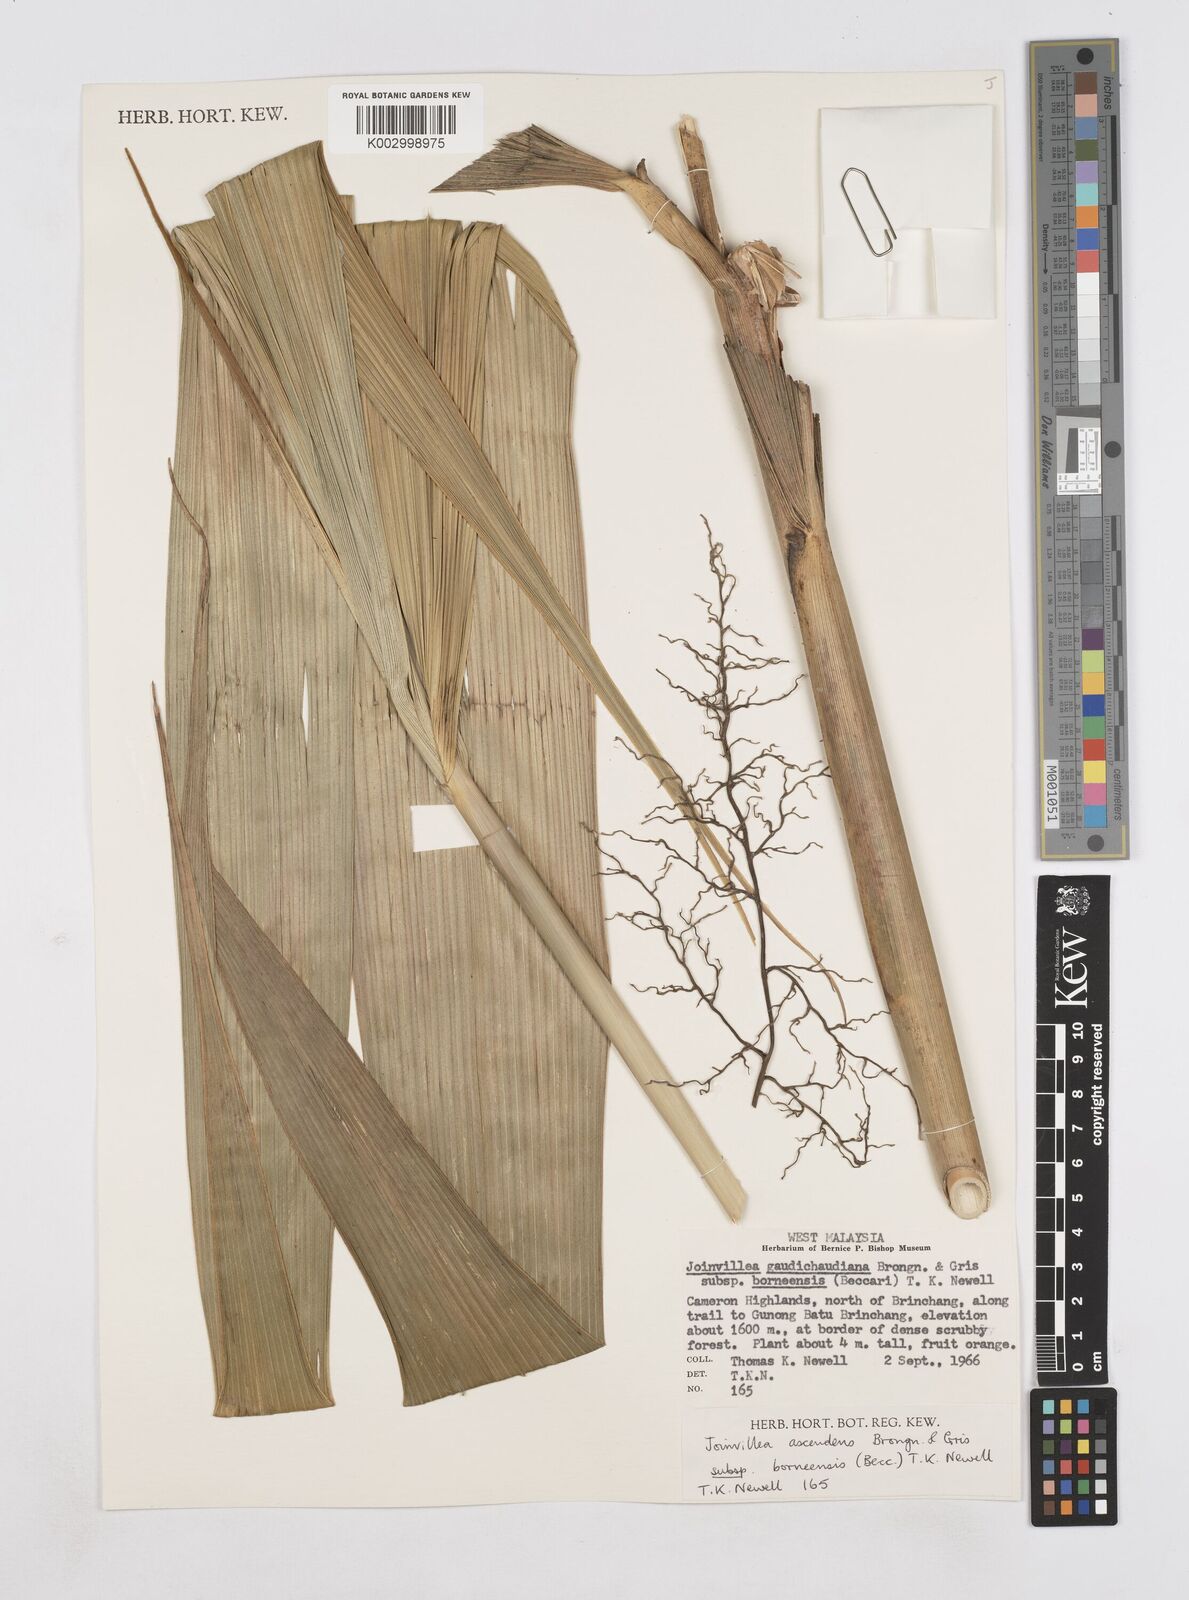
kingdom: Plantae
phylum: Tracheophyta
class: Liliopsida
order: Poales
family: Joinvilleaceae
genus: Joinvillea
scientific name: Joinvillea borneensis
